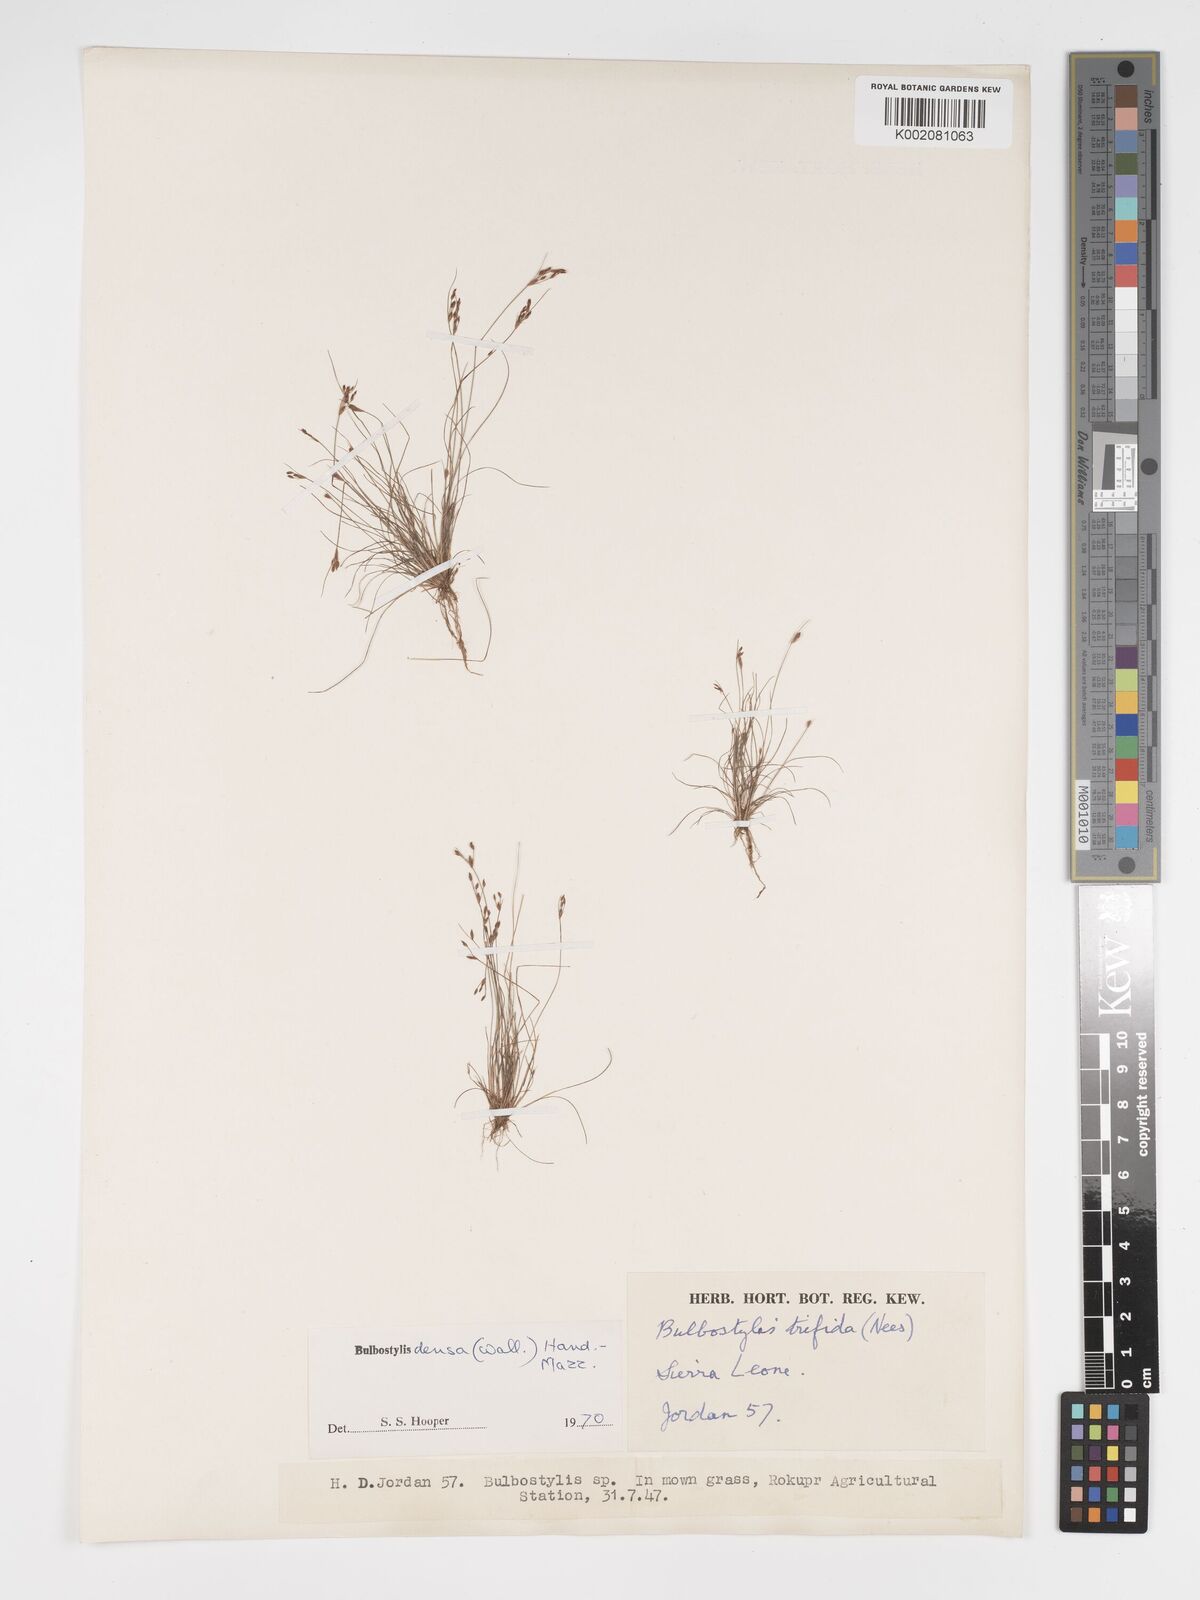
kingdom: Plantae
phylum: Tracheophyta
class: Liliopsida
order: Poales
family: Cyperaceae
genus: Bulbostylis
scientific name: Bulbostylis densa
